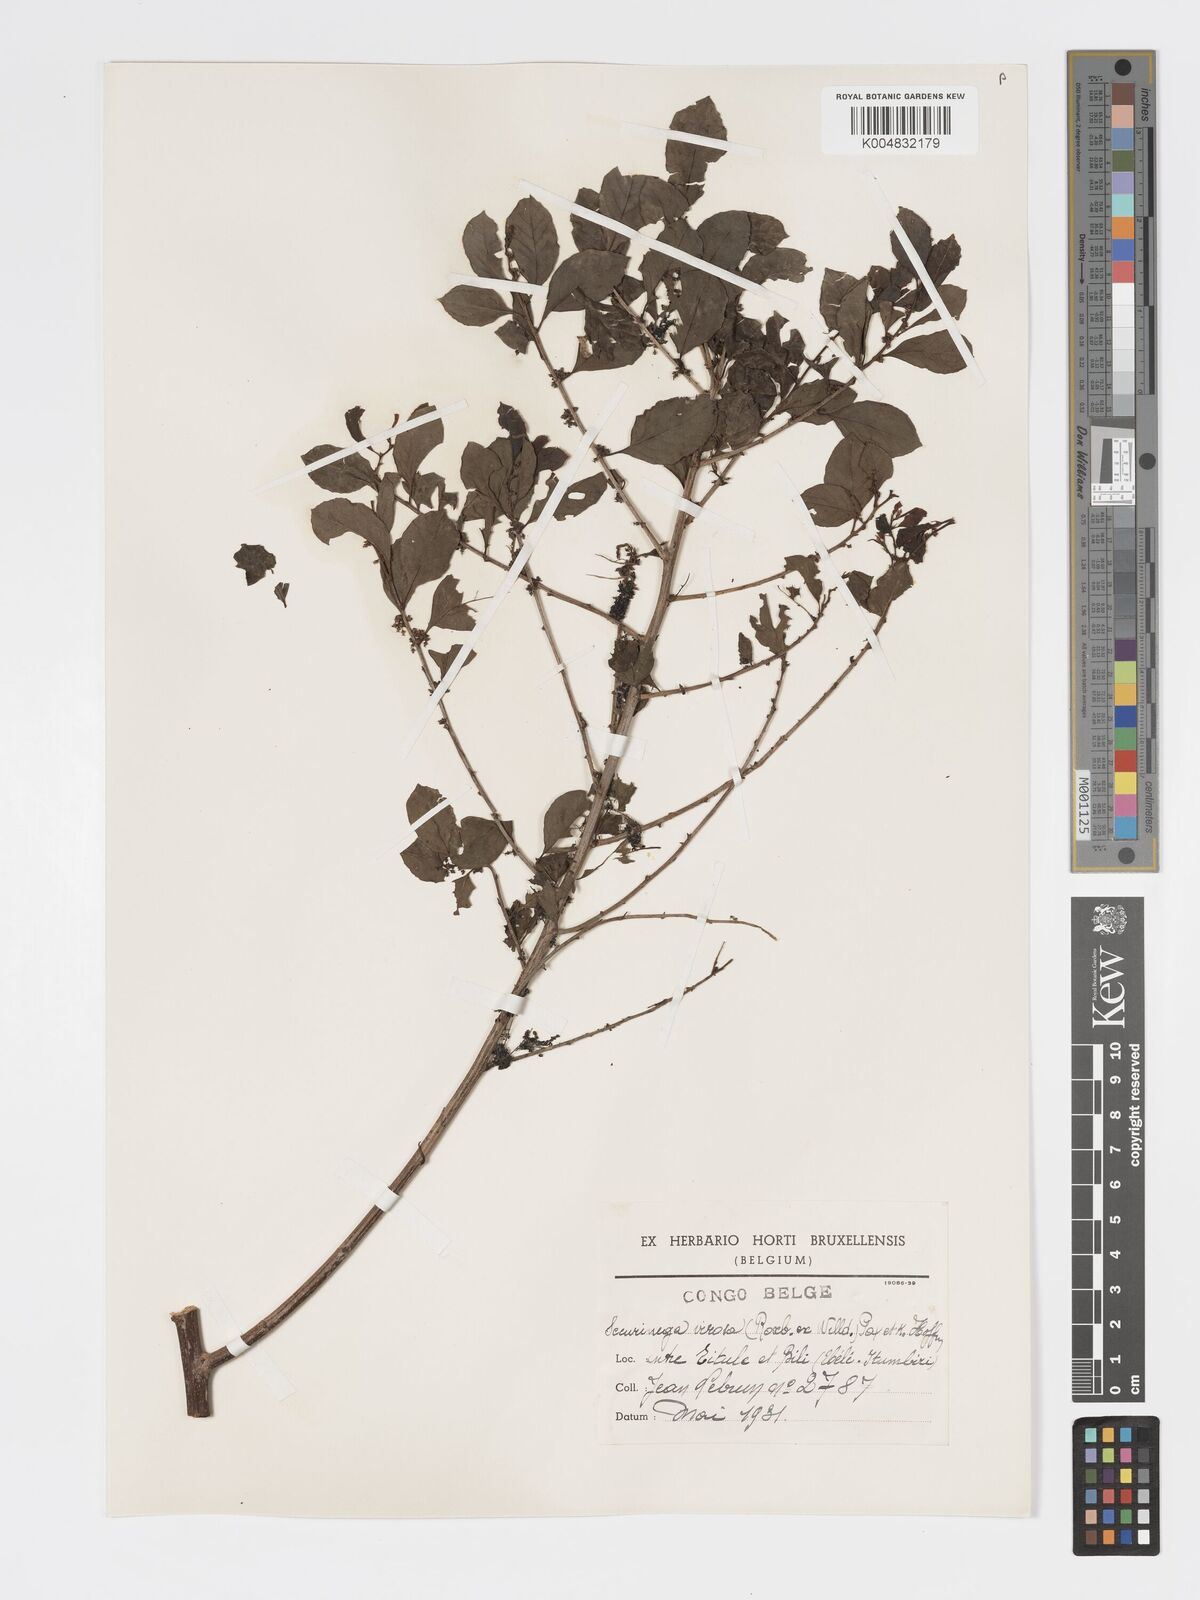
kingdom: Plantae
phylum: Tracheophyta
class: Magnoliopsida
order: Malpighiales
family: Phyllanthaceae
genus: Flueggea
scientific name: Flueggea virosa
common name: Common bushweed
